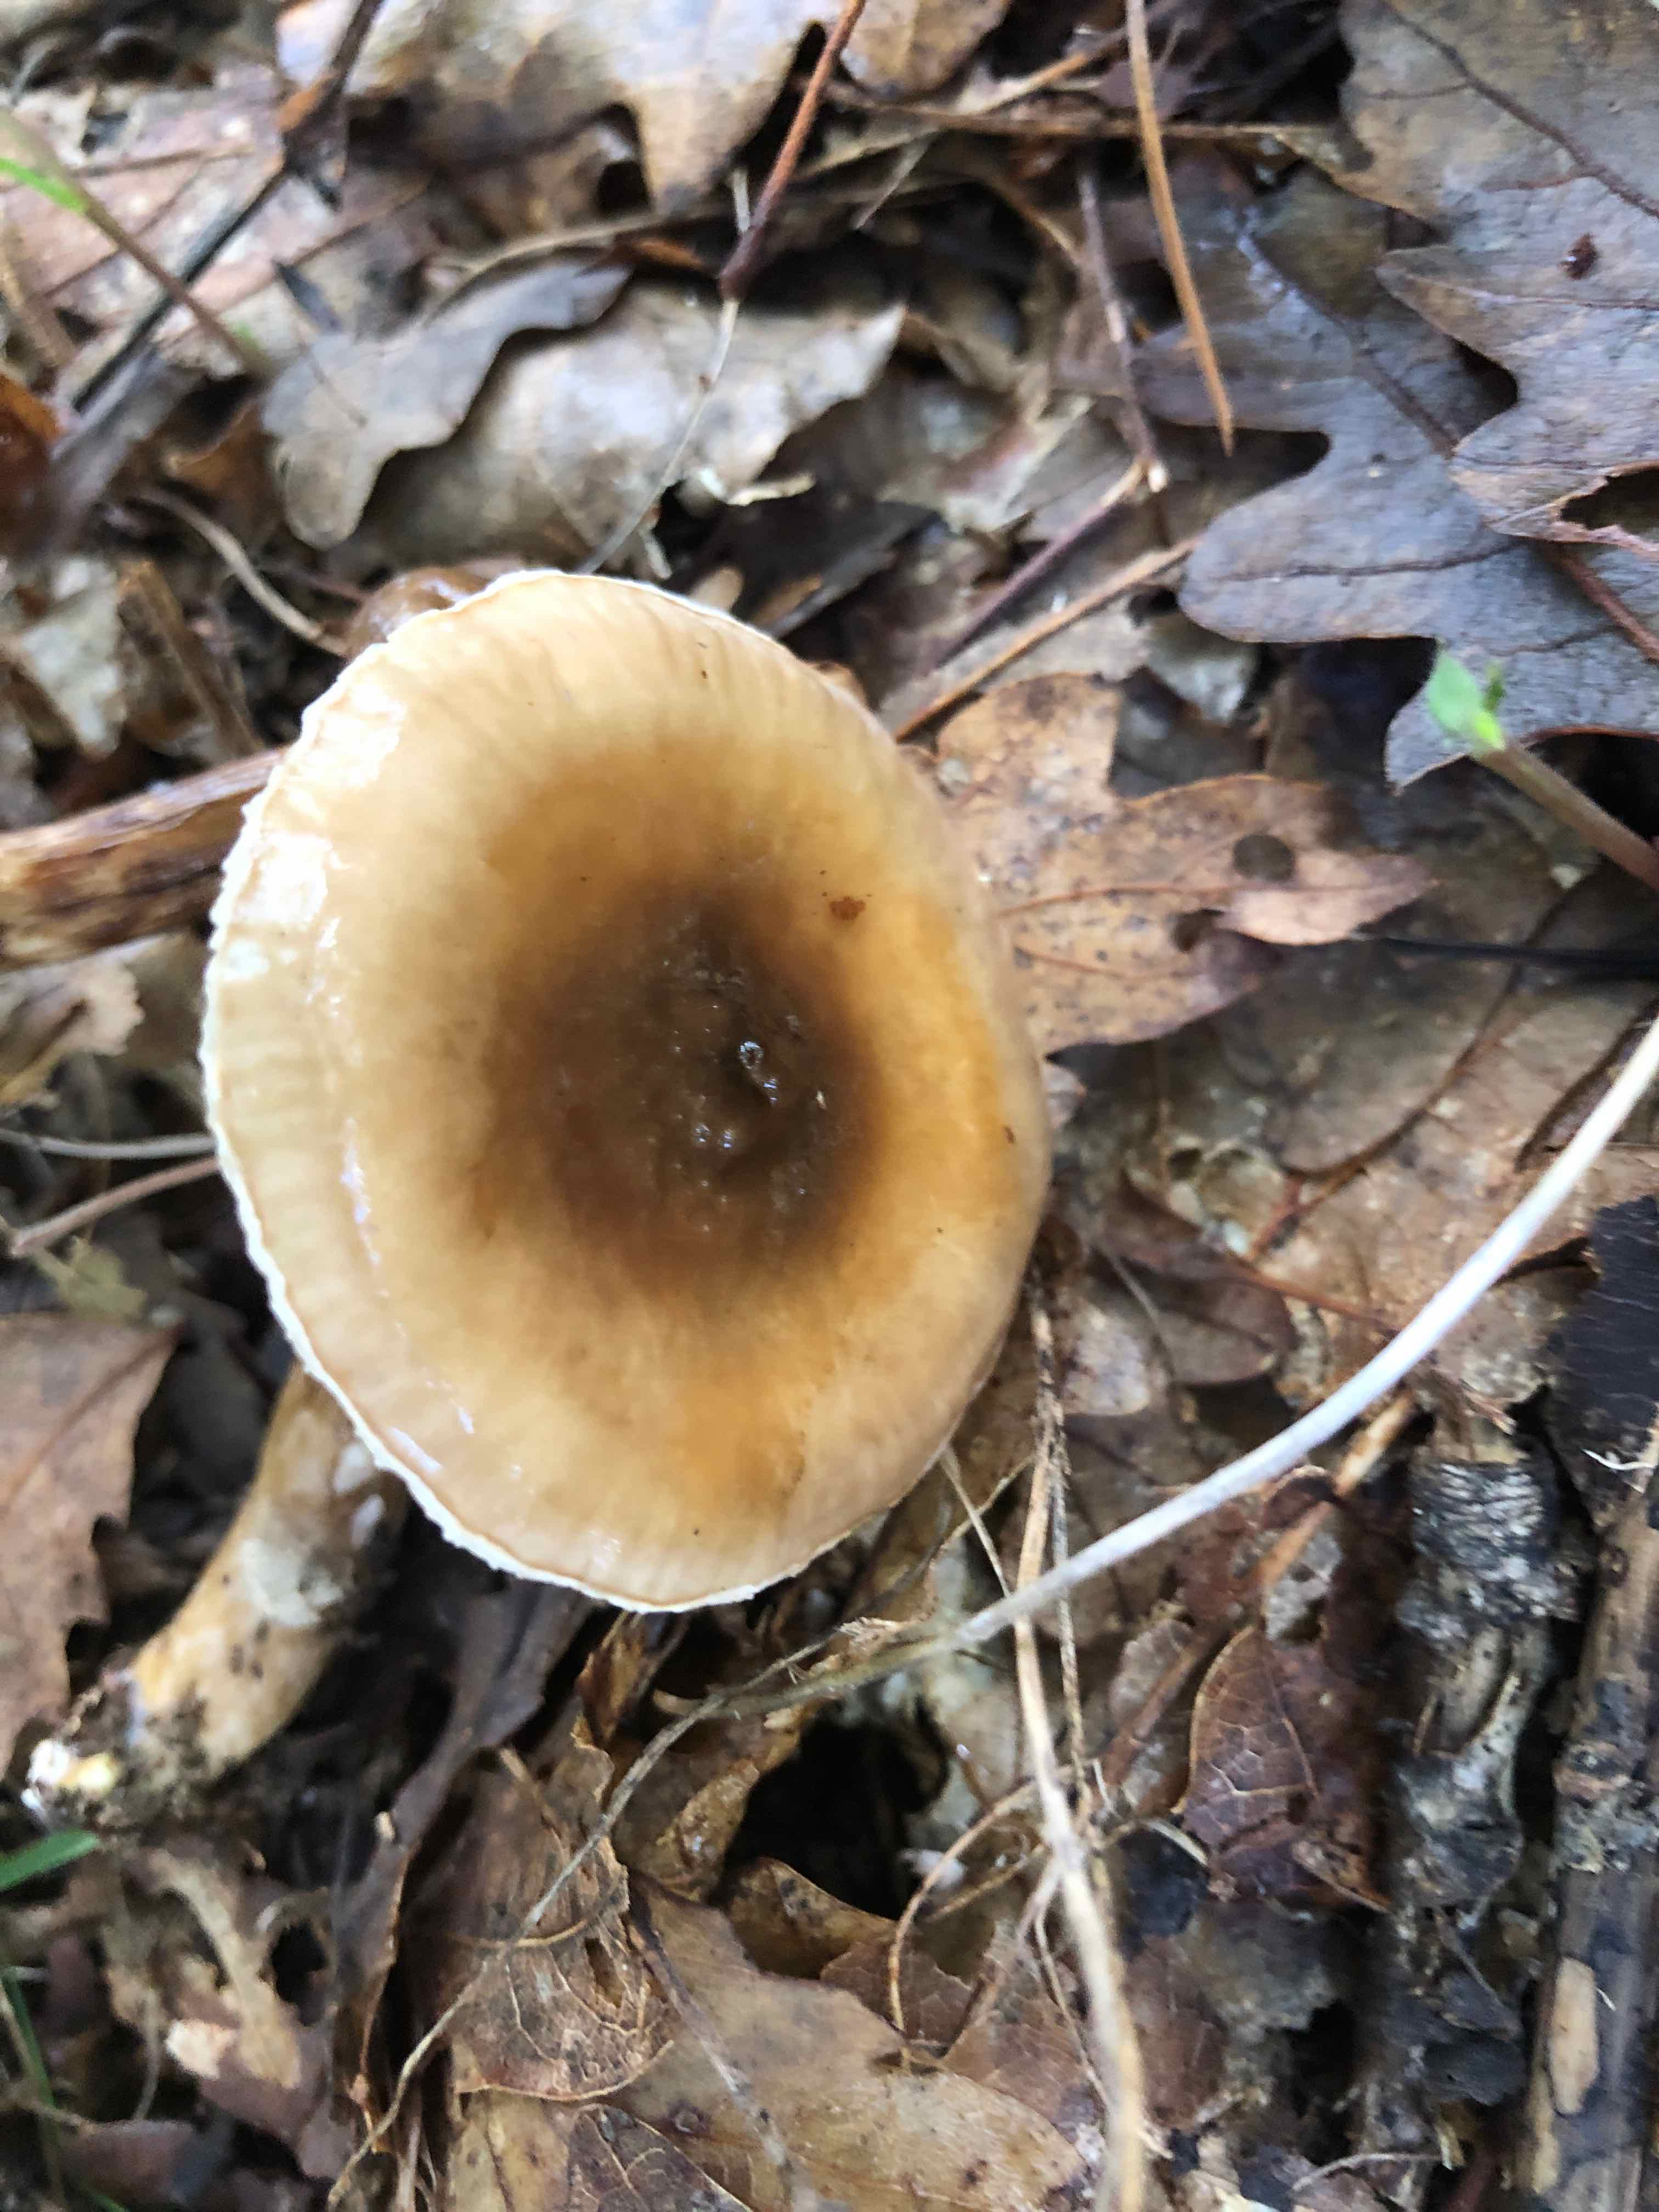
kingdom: Fungi
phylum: Basidiomycota
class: Agaricomycetes
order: Agaricales
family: Hygrophoraceae
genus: Hygrophorus
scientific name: Hygrophorus glutinifer
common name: tvefarvet sneglehat
